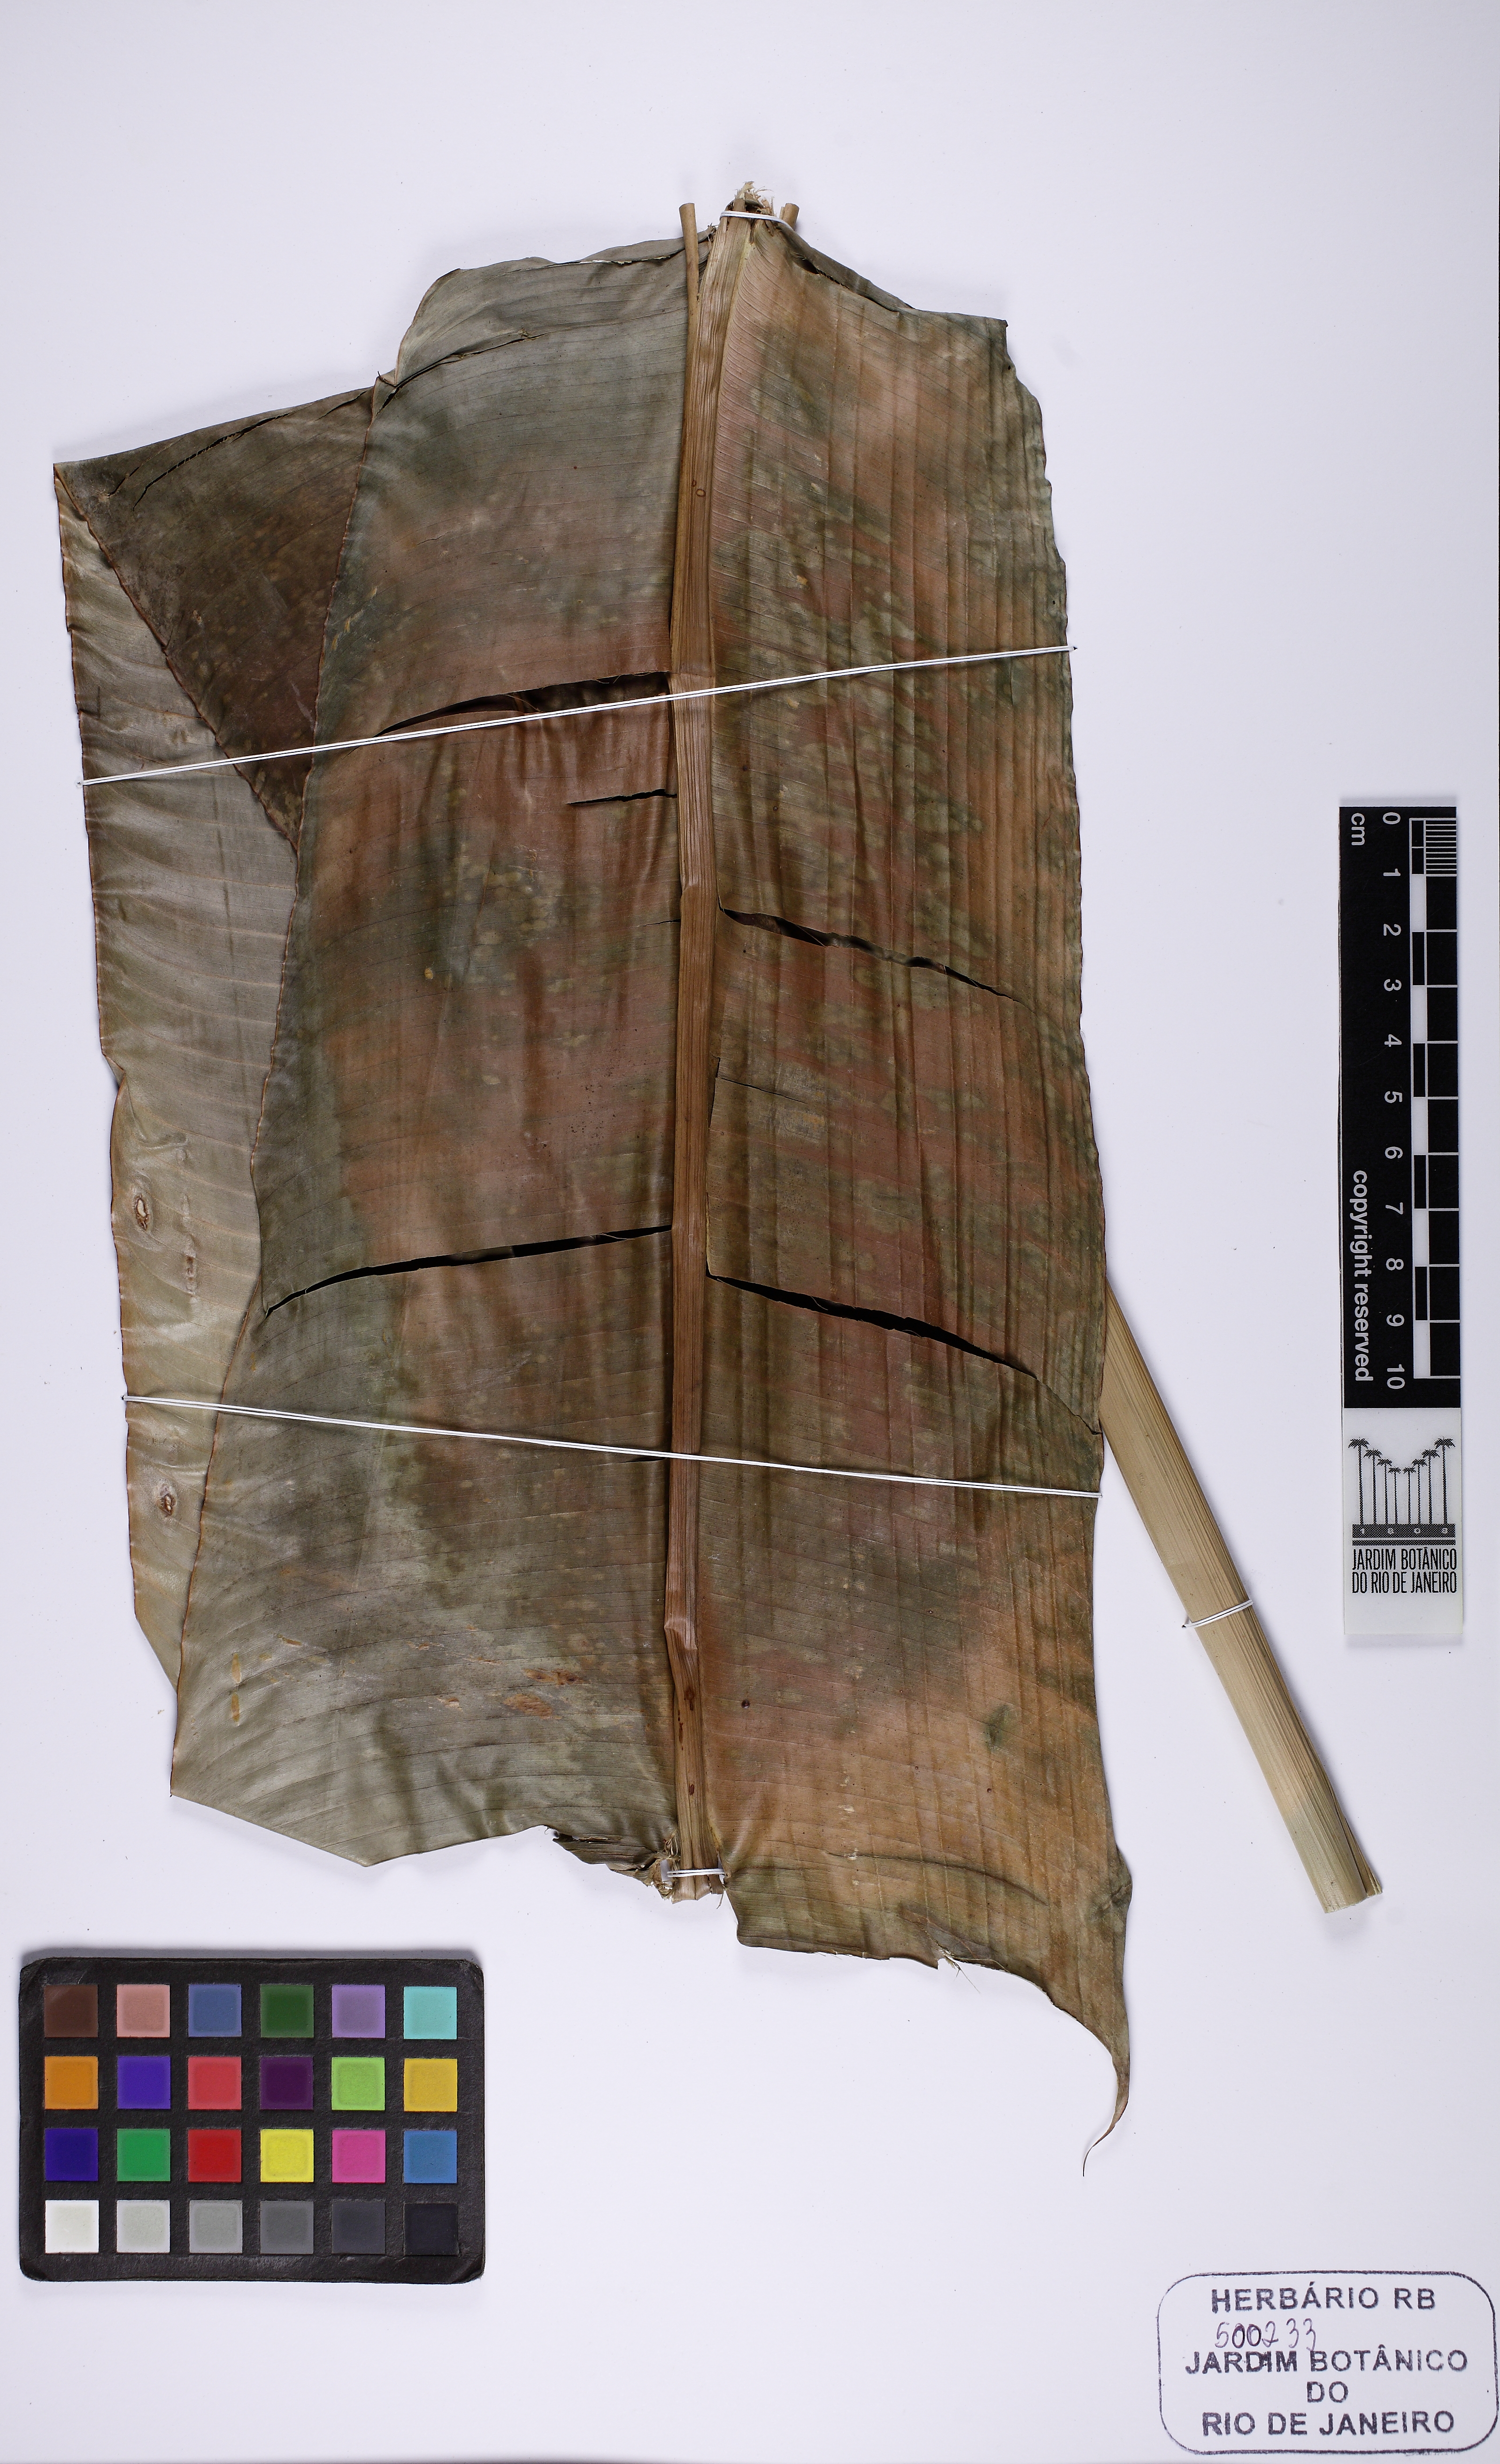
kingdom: Plantae
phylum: Tracheophyta
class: Liliopsida
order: Zingiberales
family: Heliconiaceae
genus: Heliconia
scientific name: Heliconia marginata
